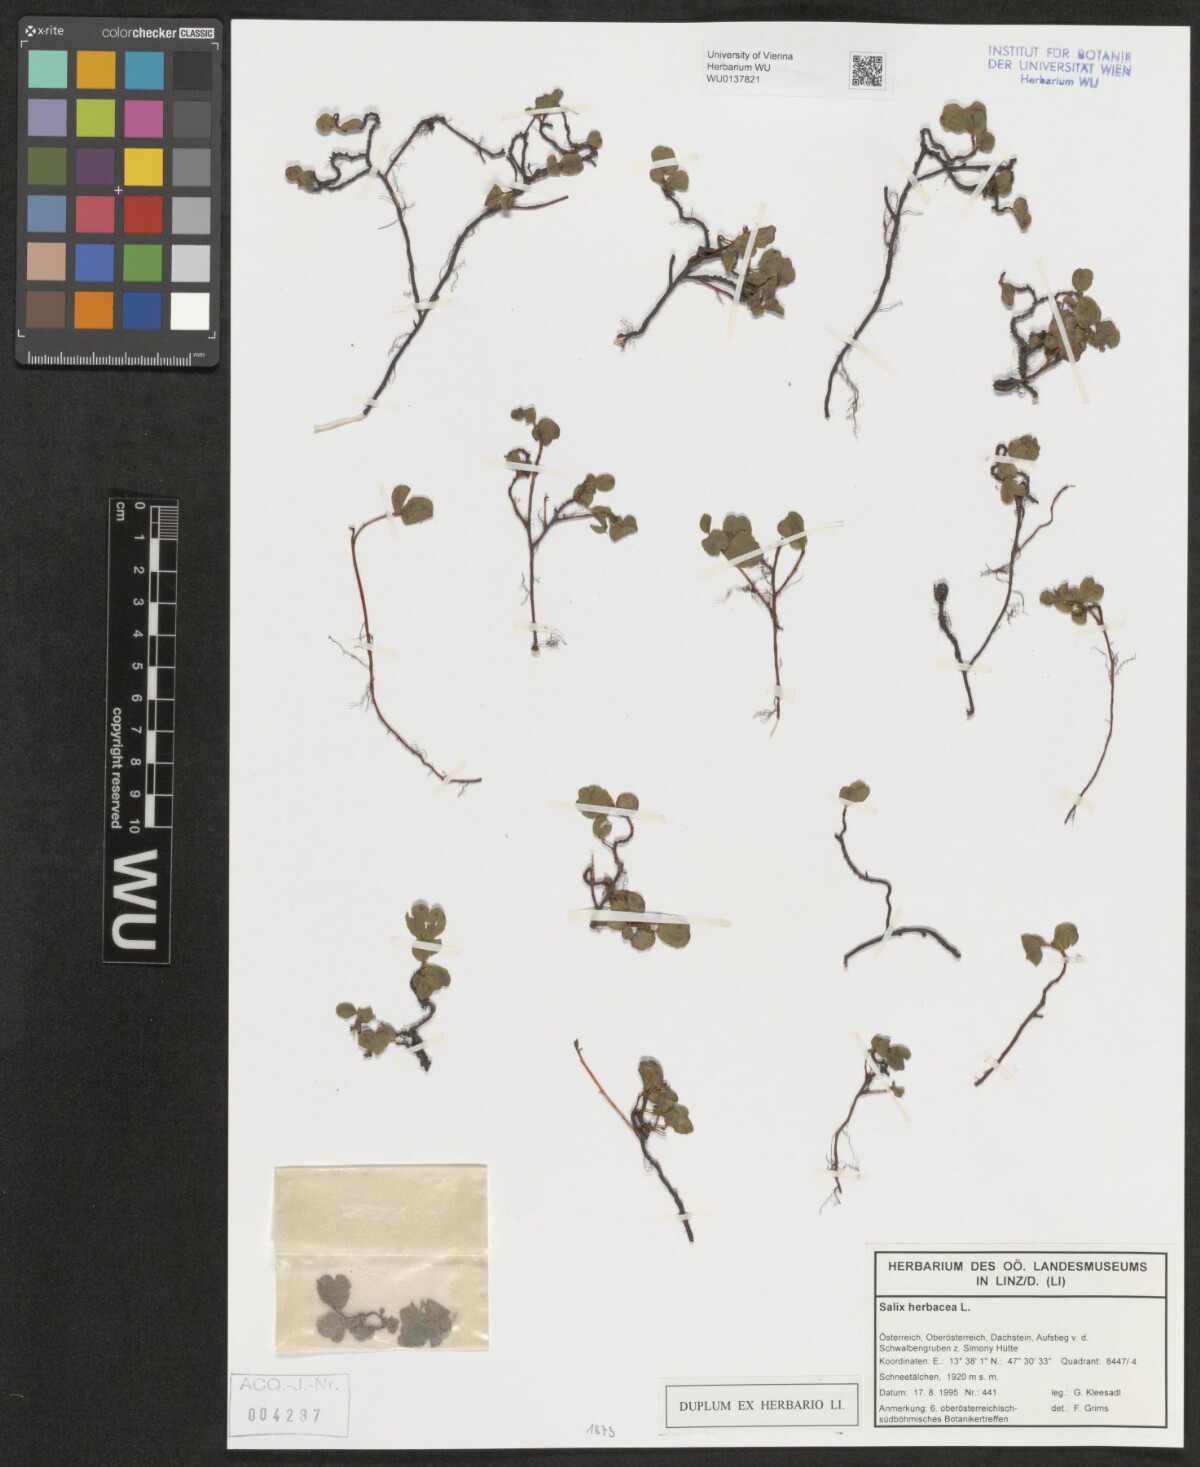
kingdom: Plantae
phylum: Tracheophyta
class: Magnoliopsida
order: Malpighiales
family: Salicaceae
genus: Salix
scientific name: Salix herbacea
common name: Dwarf willow
